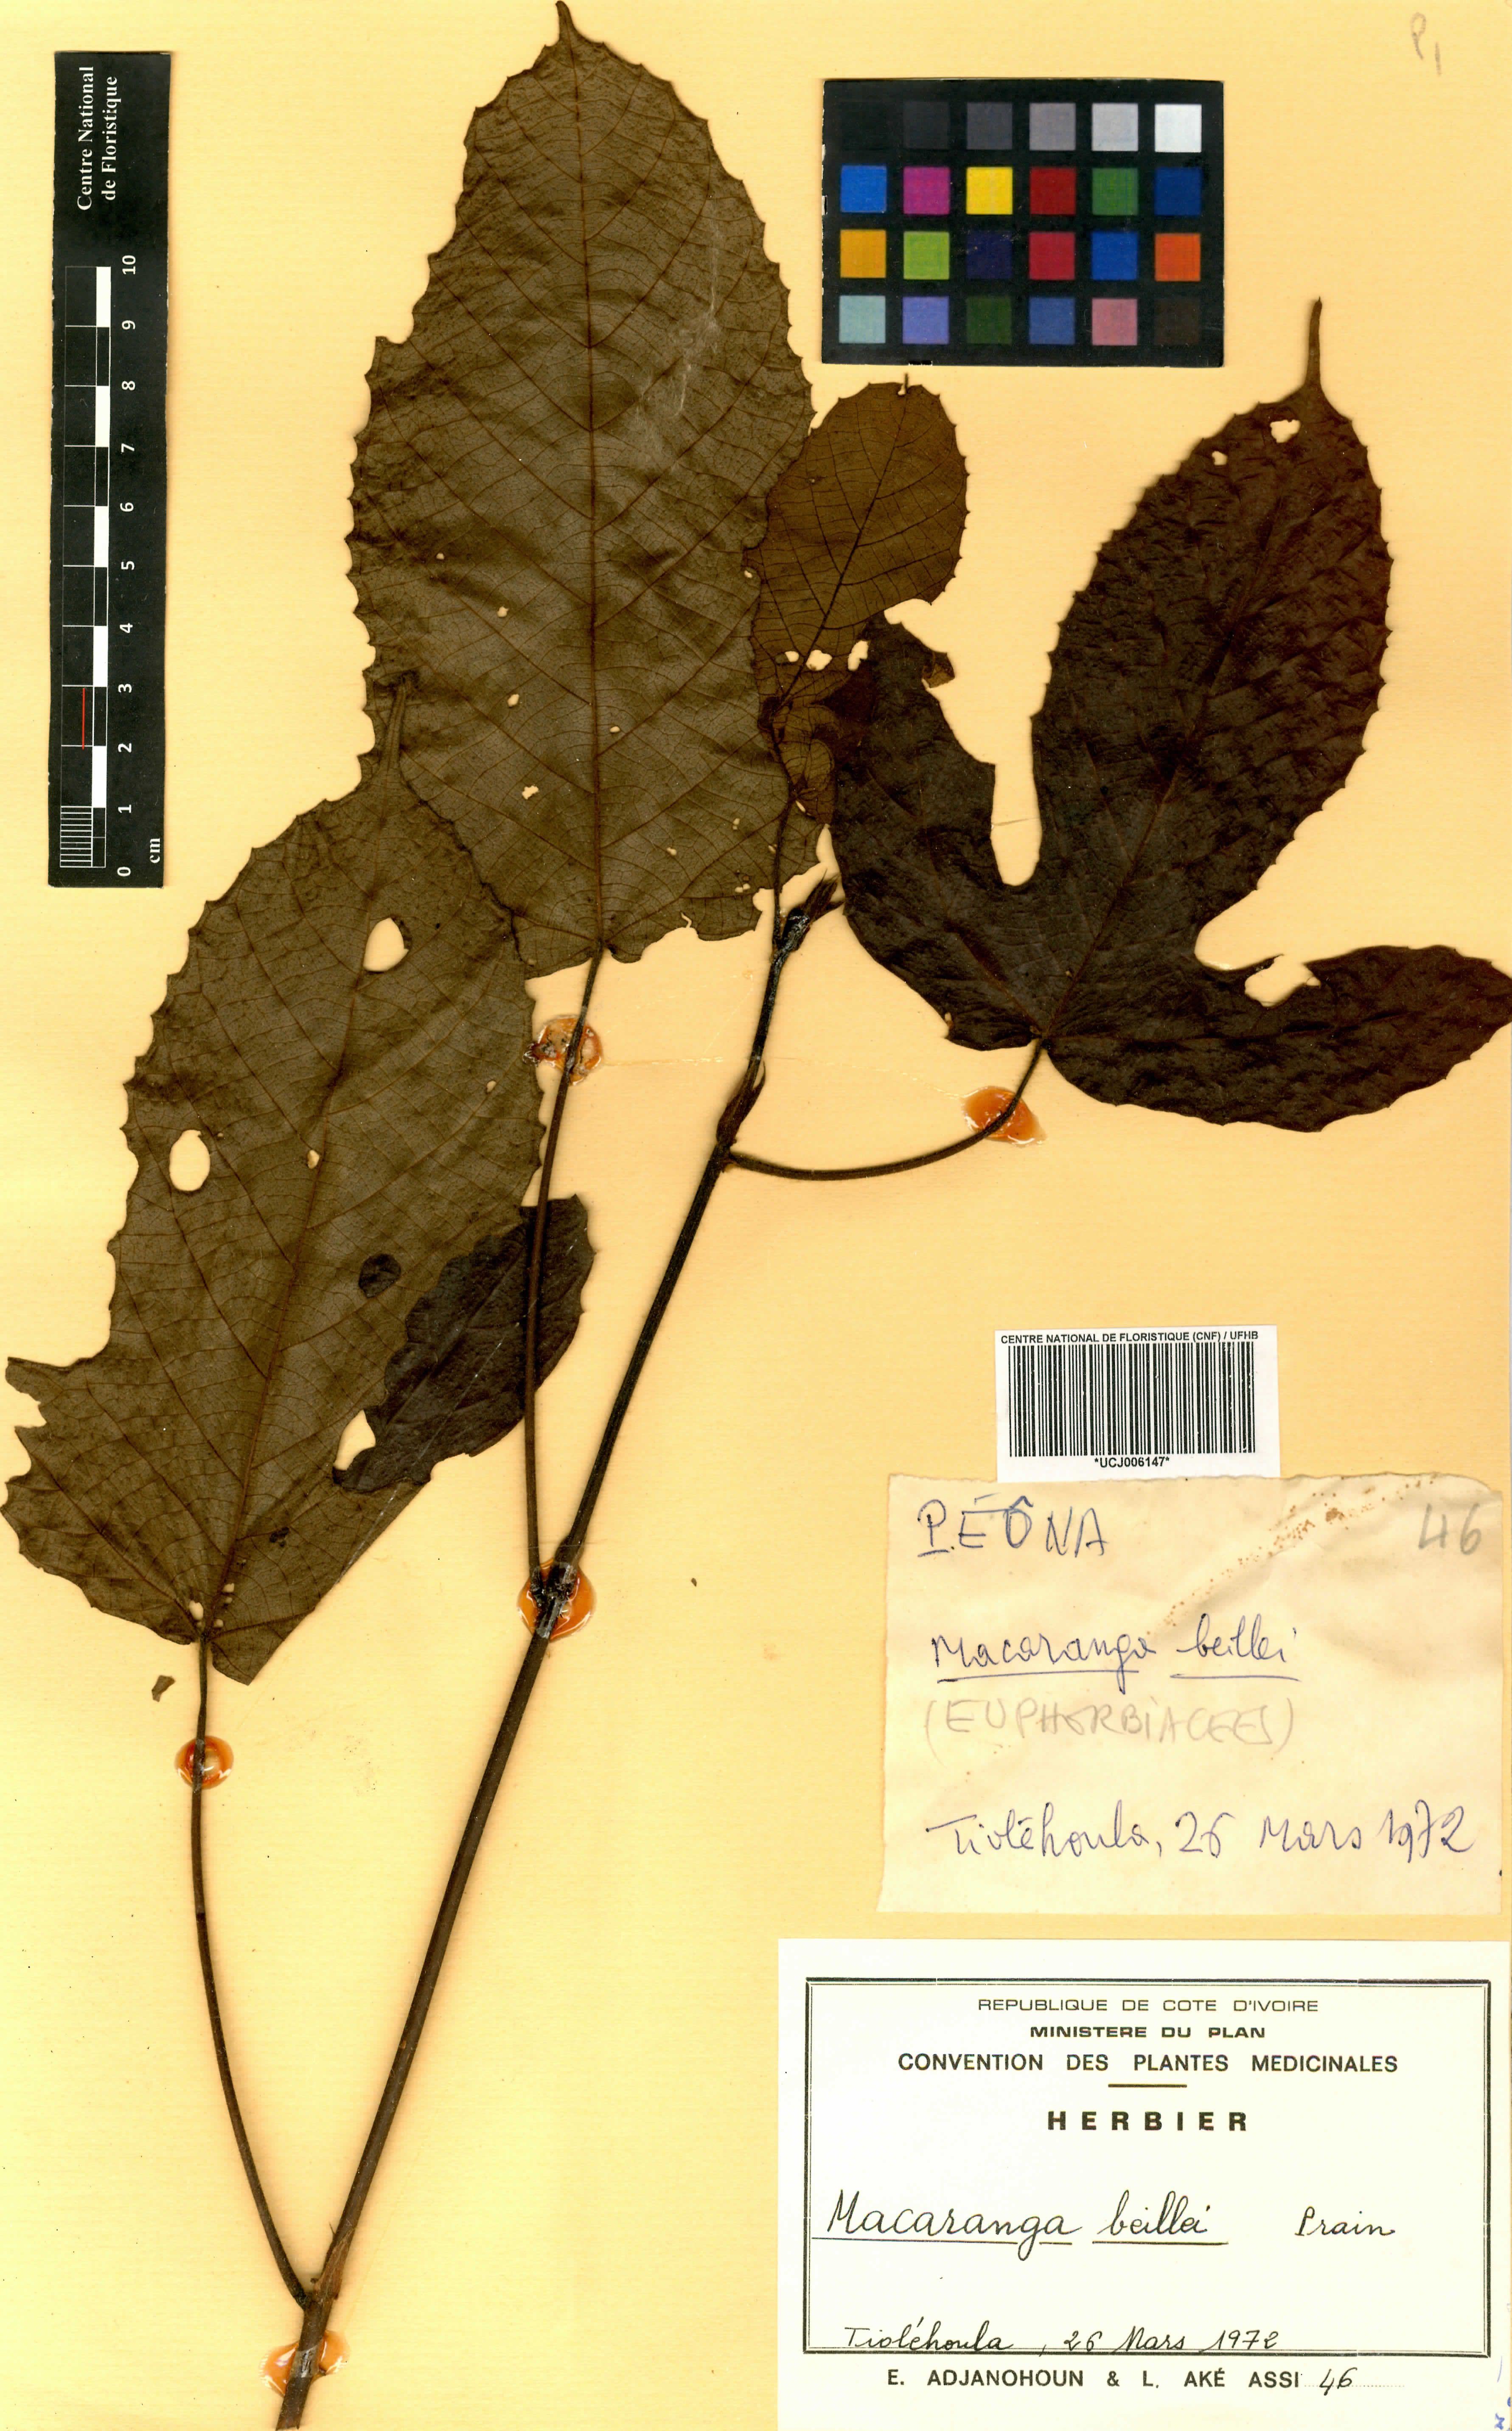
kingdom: Plantae
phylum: Tracheophyta
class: Magnoliopsida
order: Malpighiales
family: Euphorbiaceae
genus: Macaranga
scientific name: Macaranga beillei
